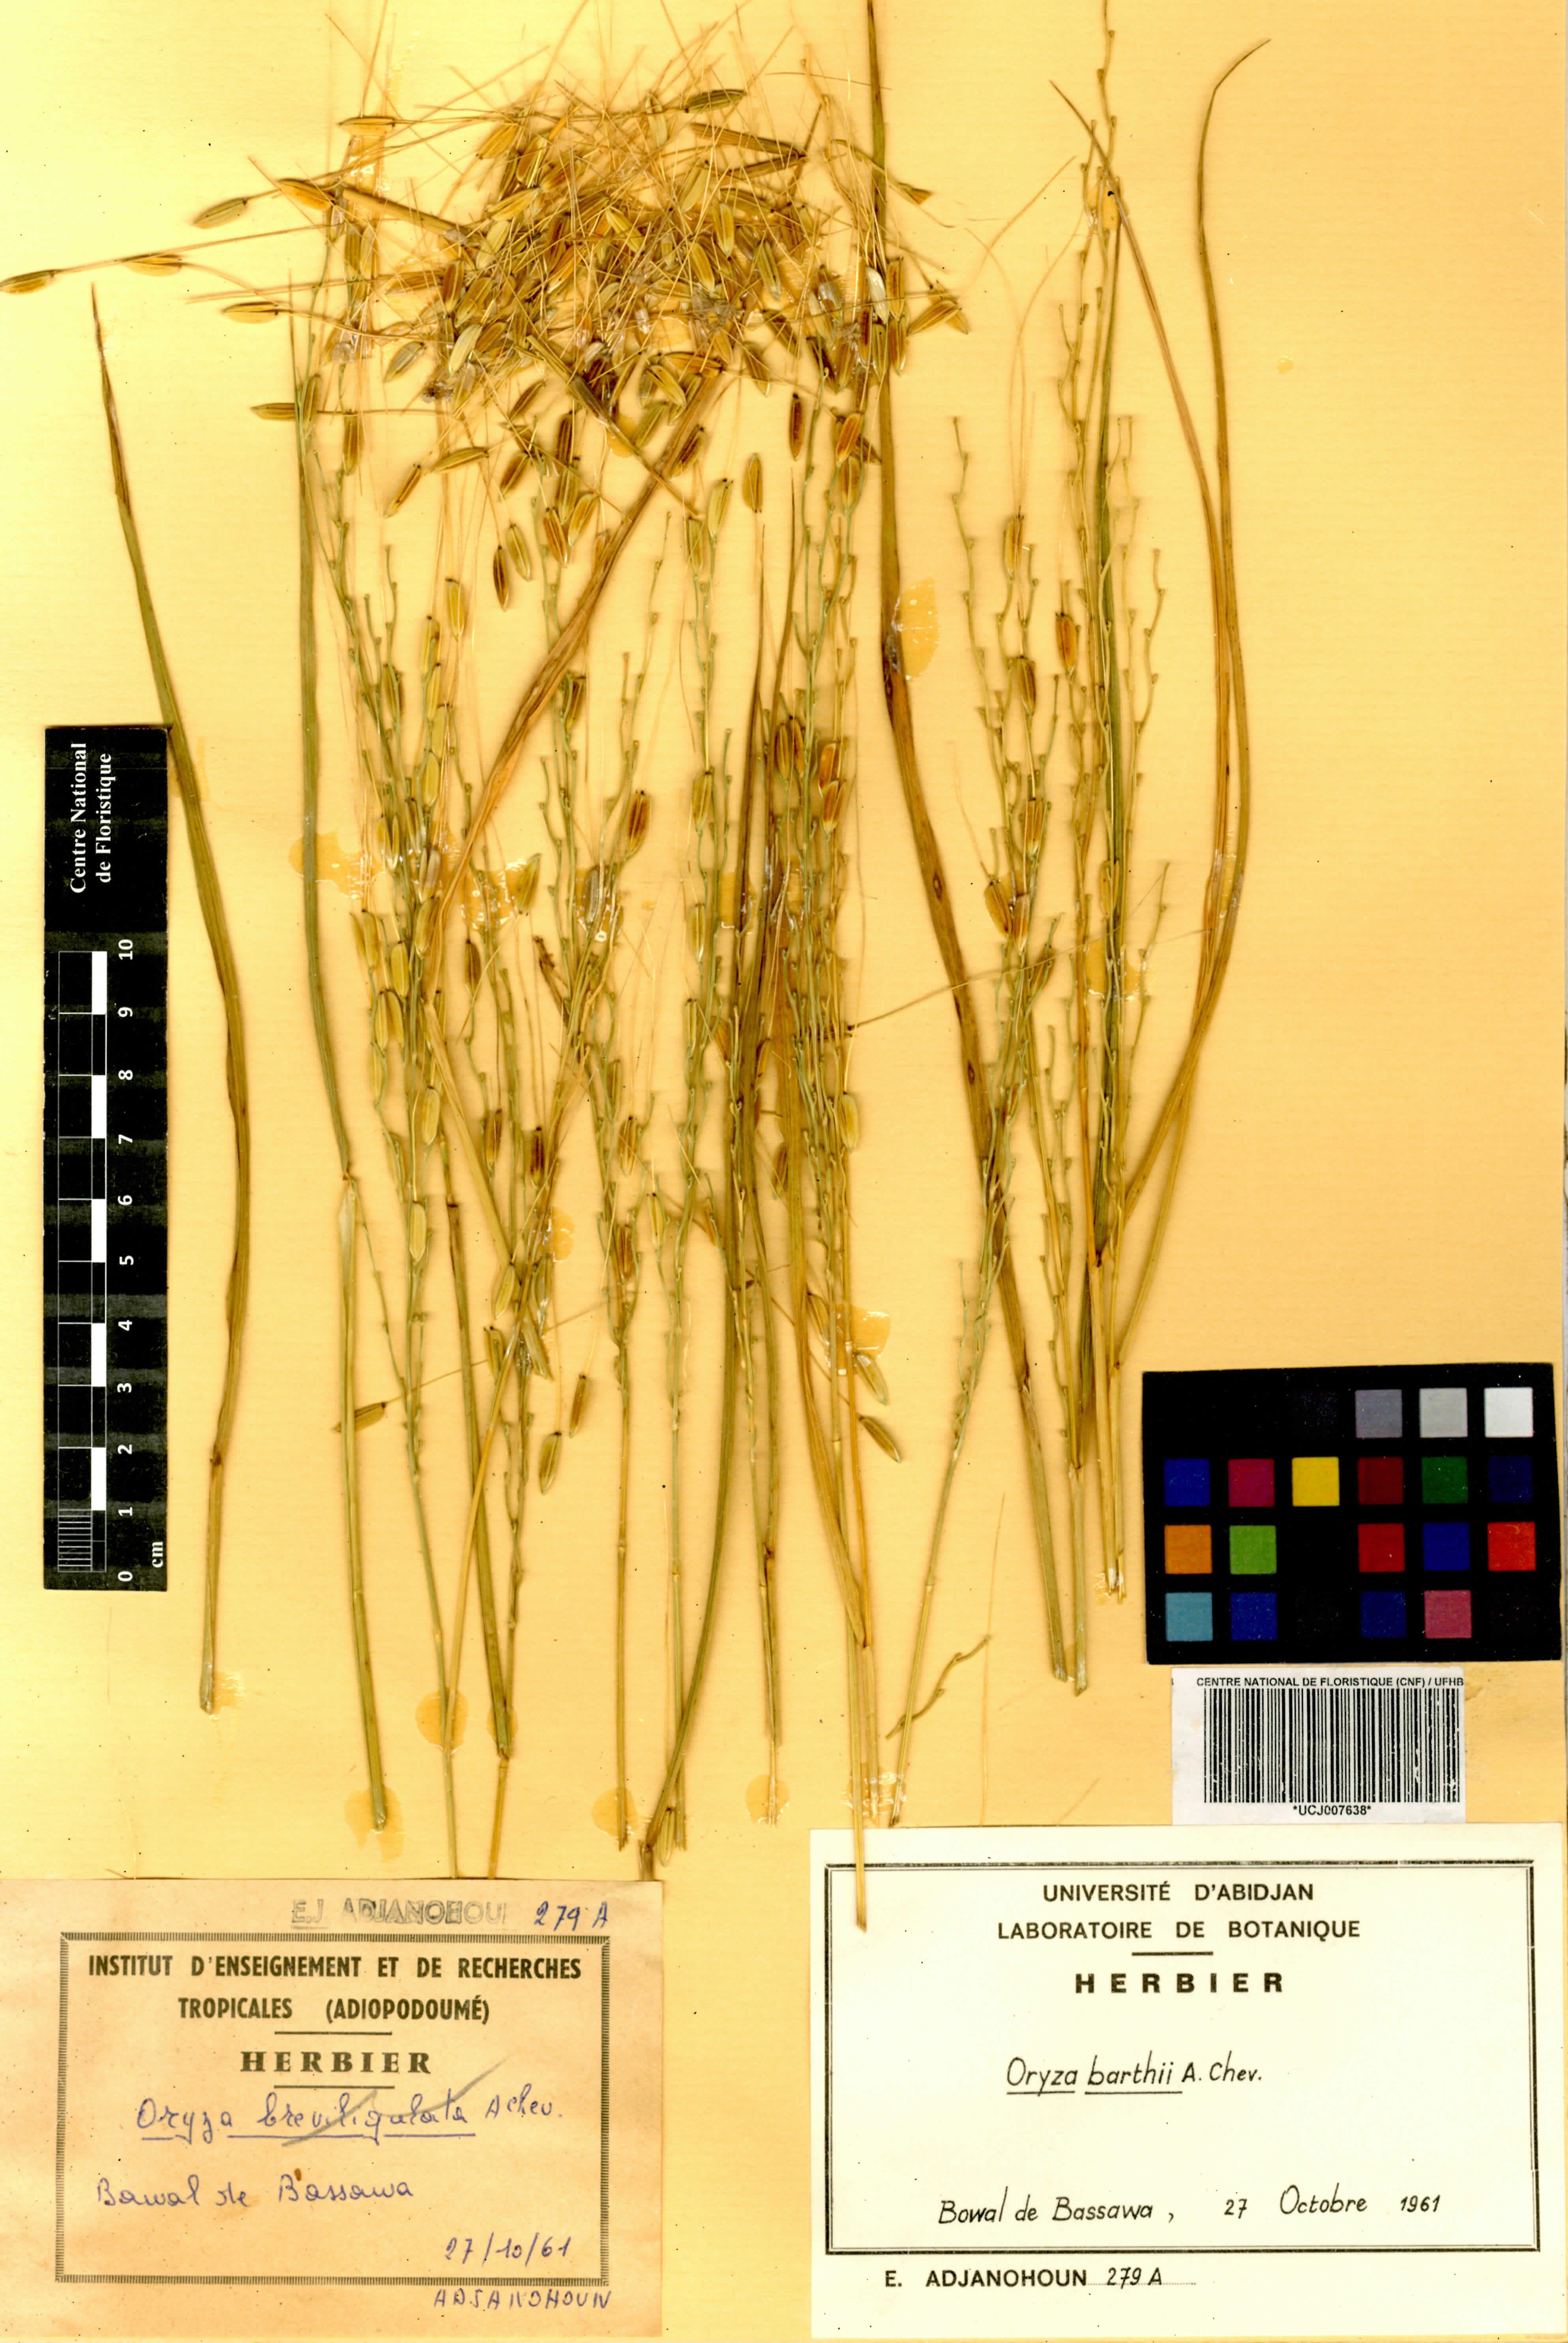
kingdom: Plantae
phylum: Tracheophyta
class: Liliopsida
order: Poales
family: Poaceae
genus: Oryza
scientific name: Oryza barthii
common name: Wild rice
